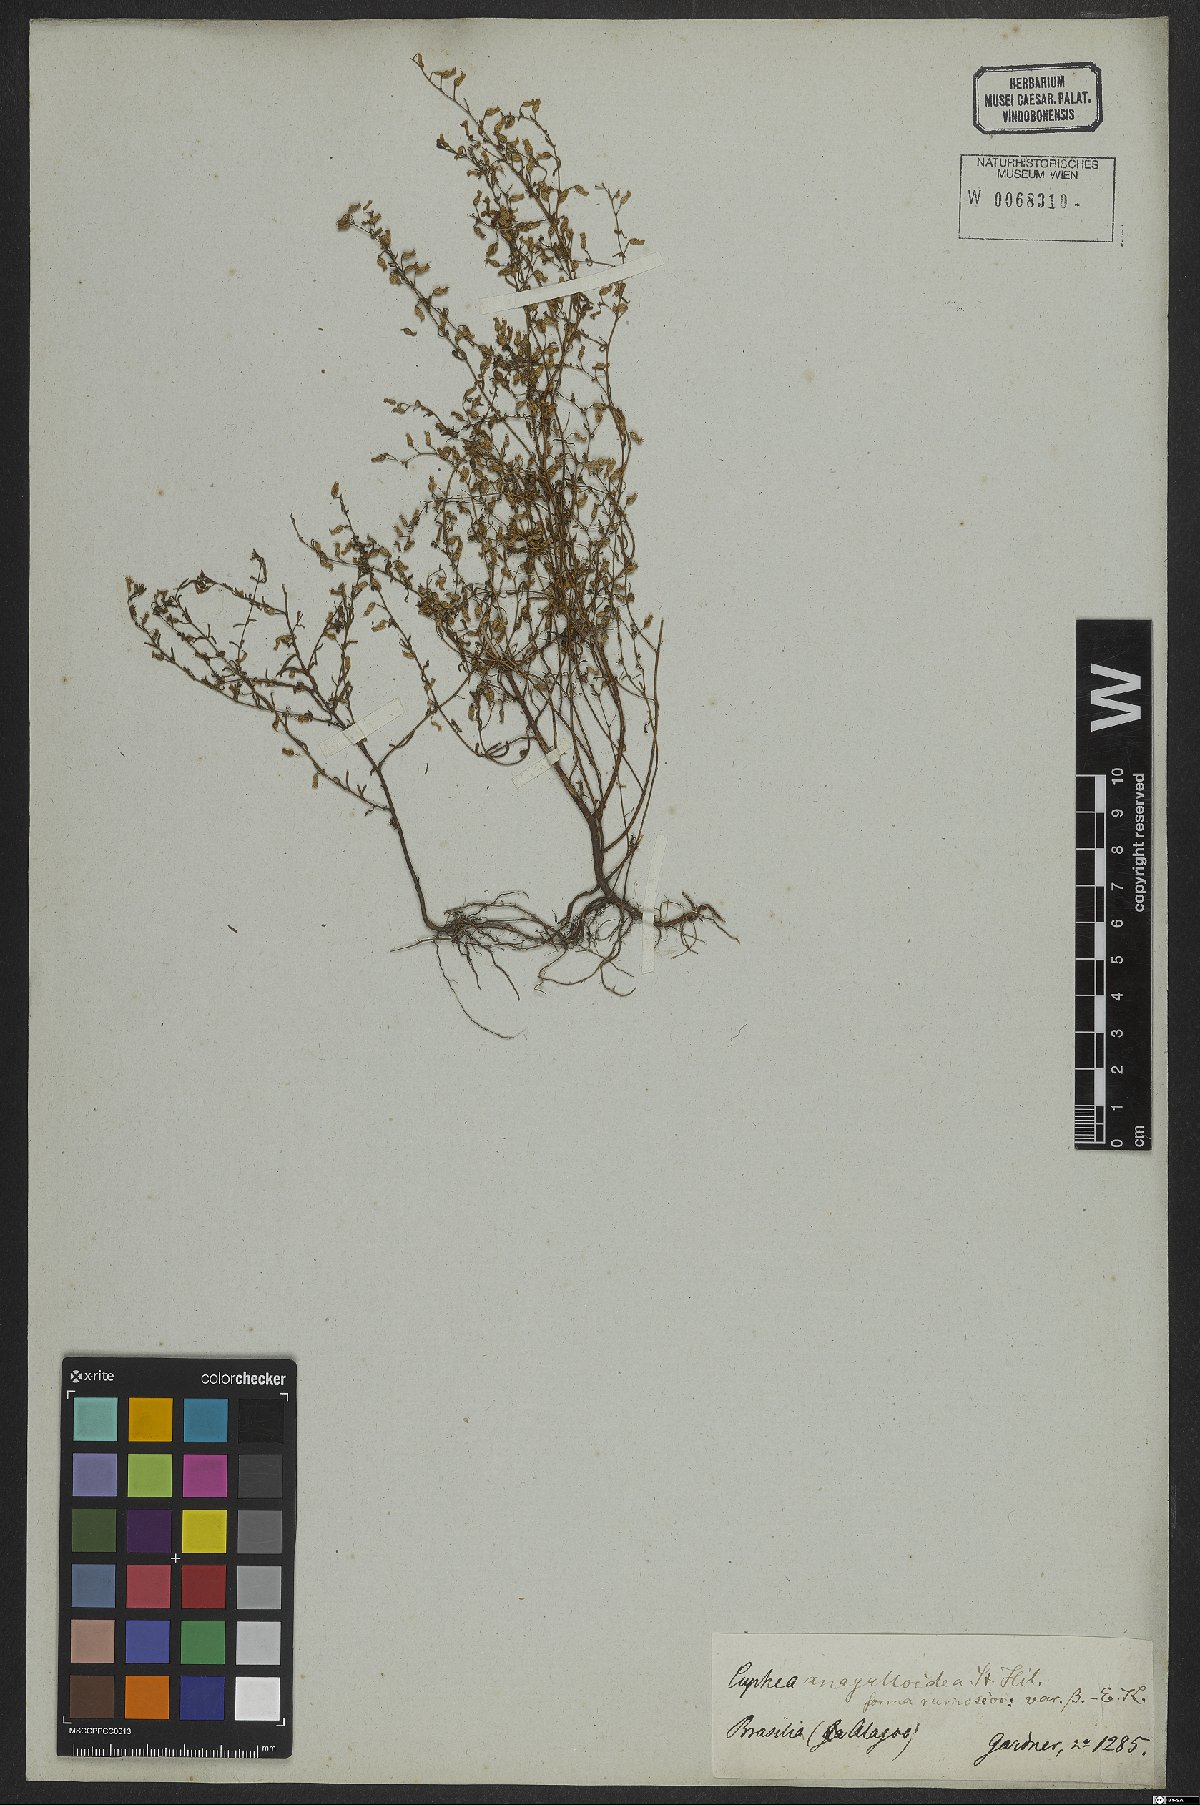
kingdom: Plantae
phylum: Tracheophyta
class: Magnoliopsida
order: Myrtales
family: Lythraceae
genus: Cuphea
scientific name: Cuphea anagalloidea
